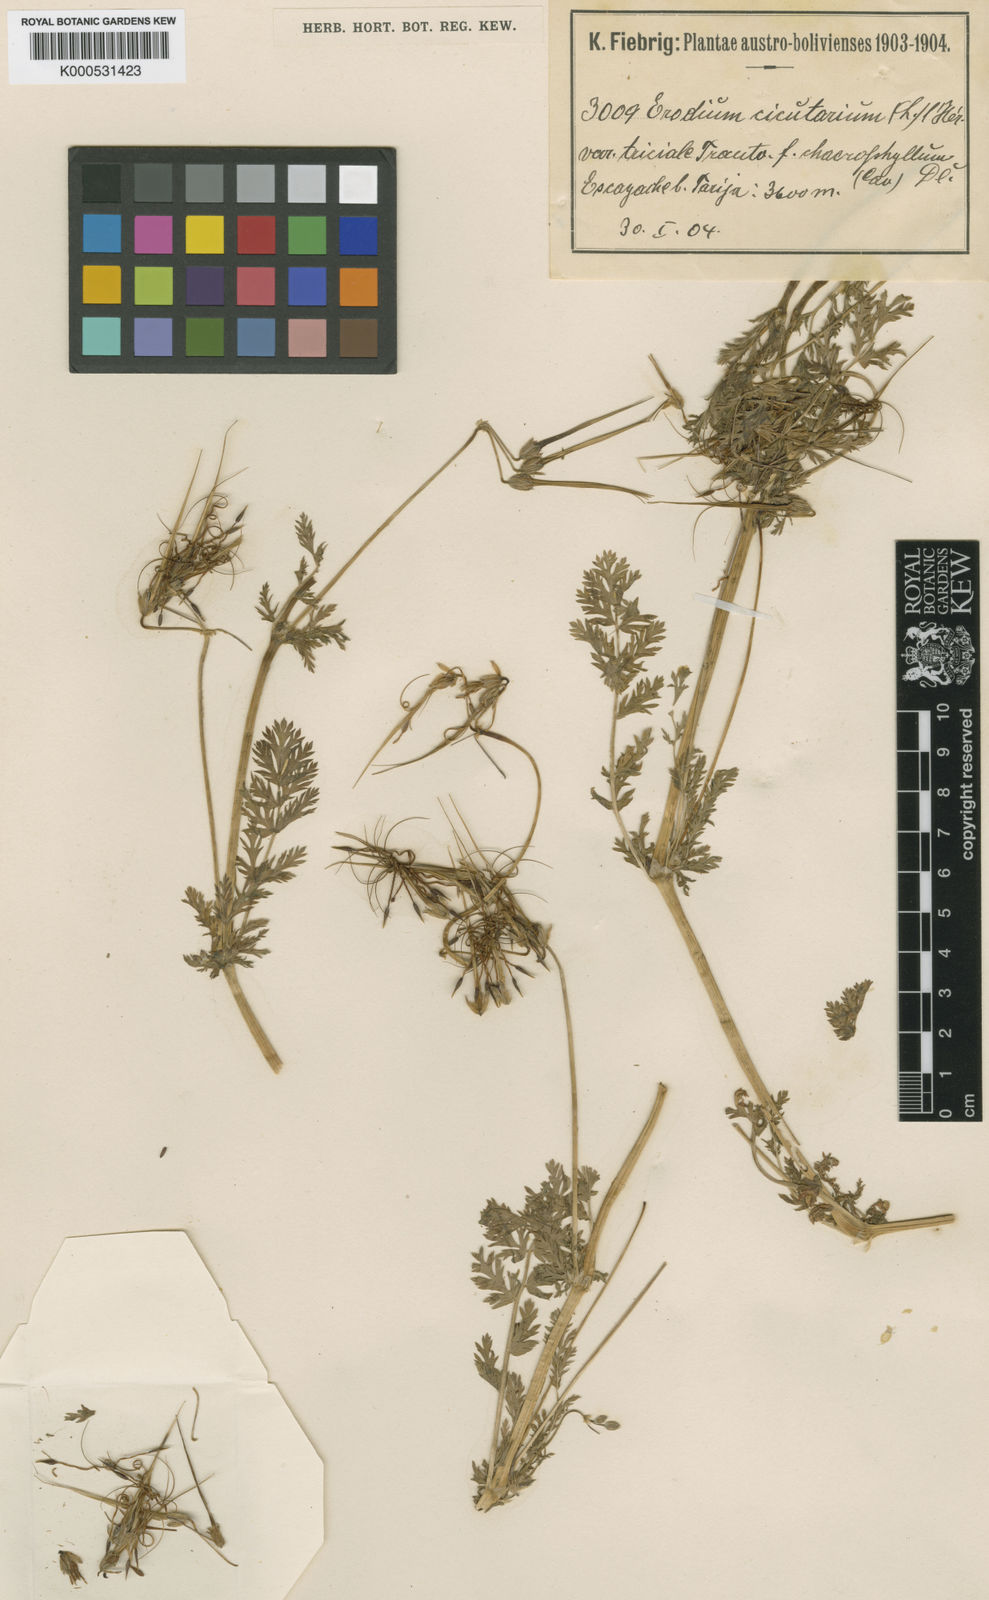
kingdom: Plantae
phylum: Tracheophyta
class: Magnoliopsida
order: Geraniales
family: Geraniaceae
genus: Erodium
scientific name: Erodium cicutarium
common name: Common stork's-bill
